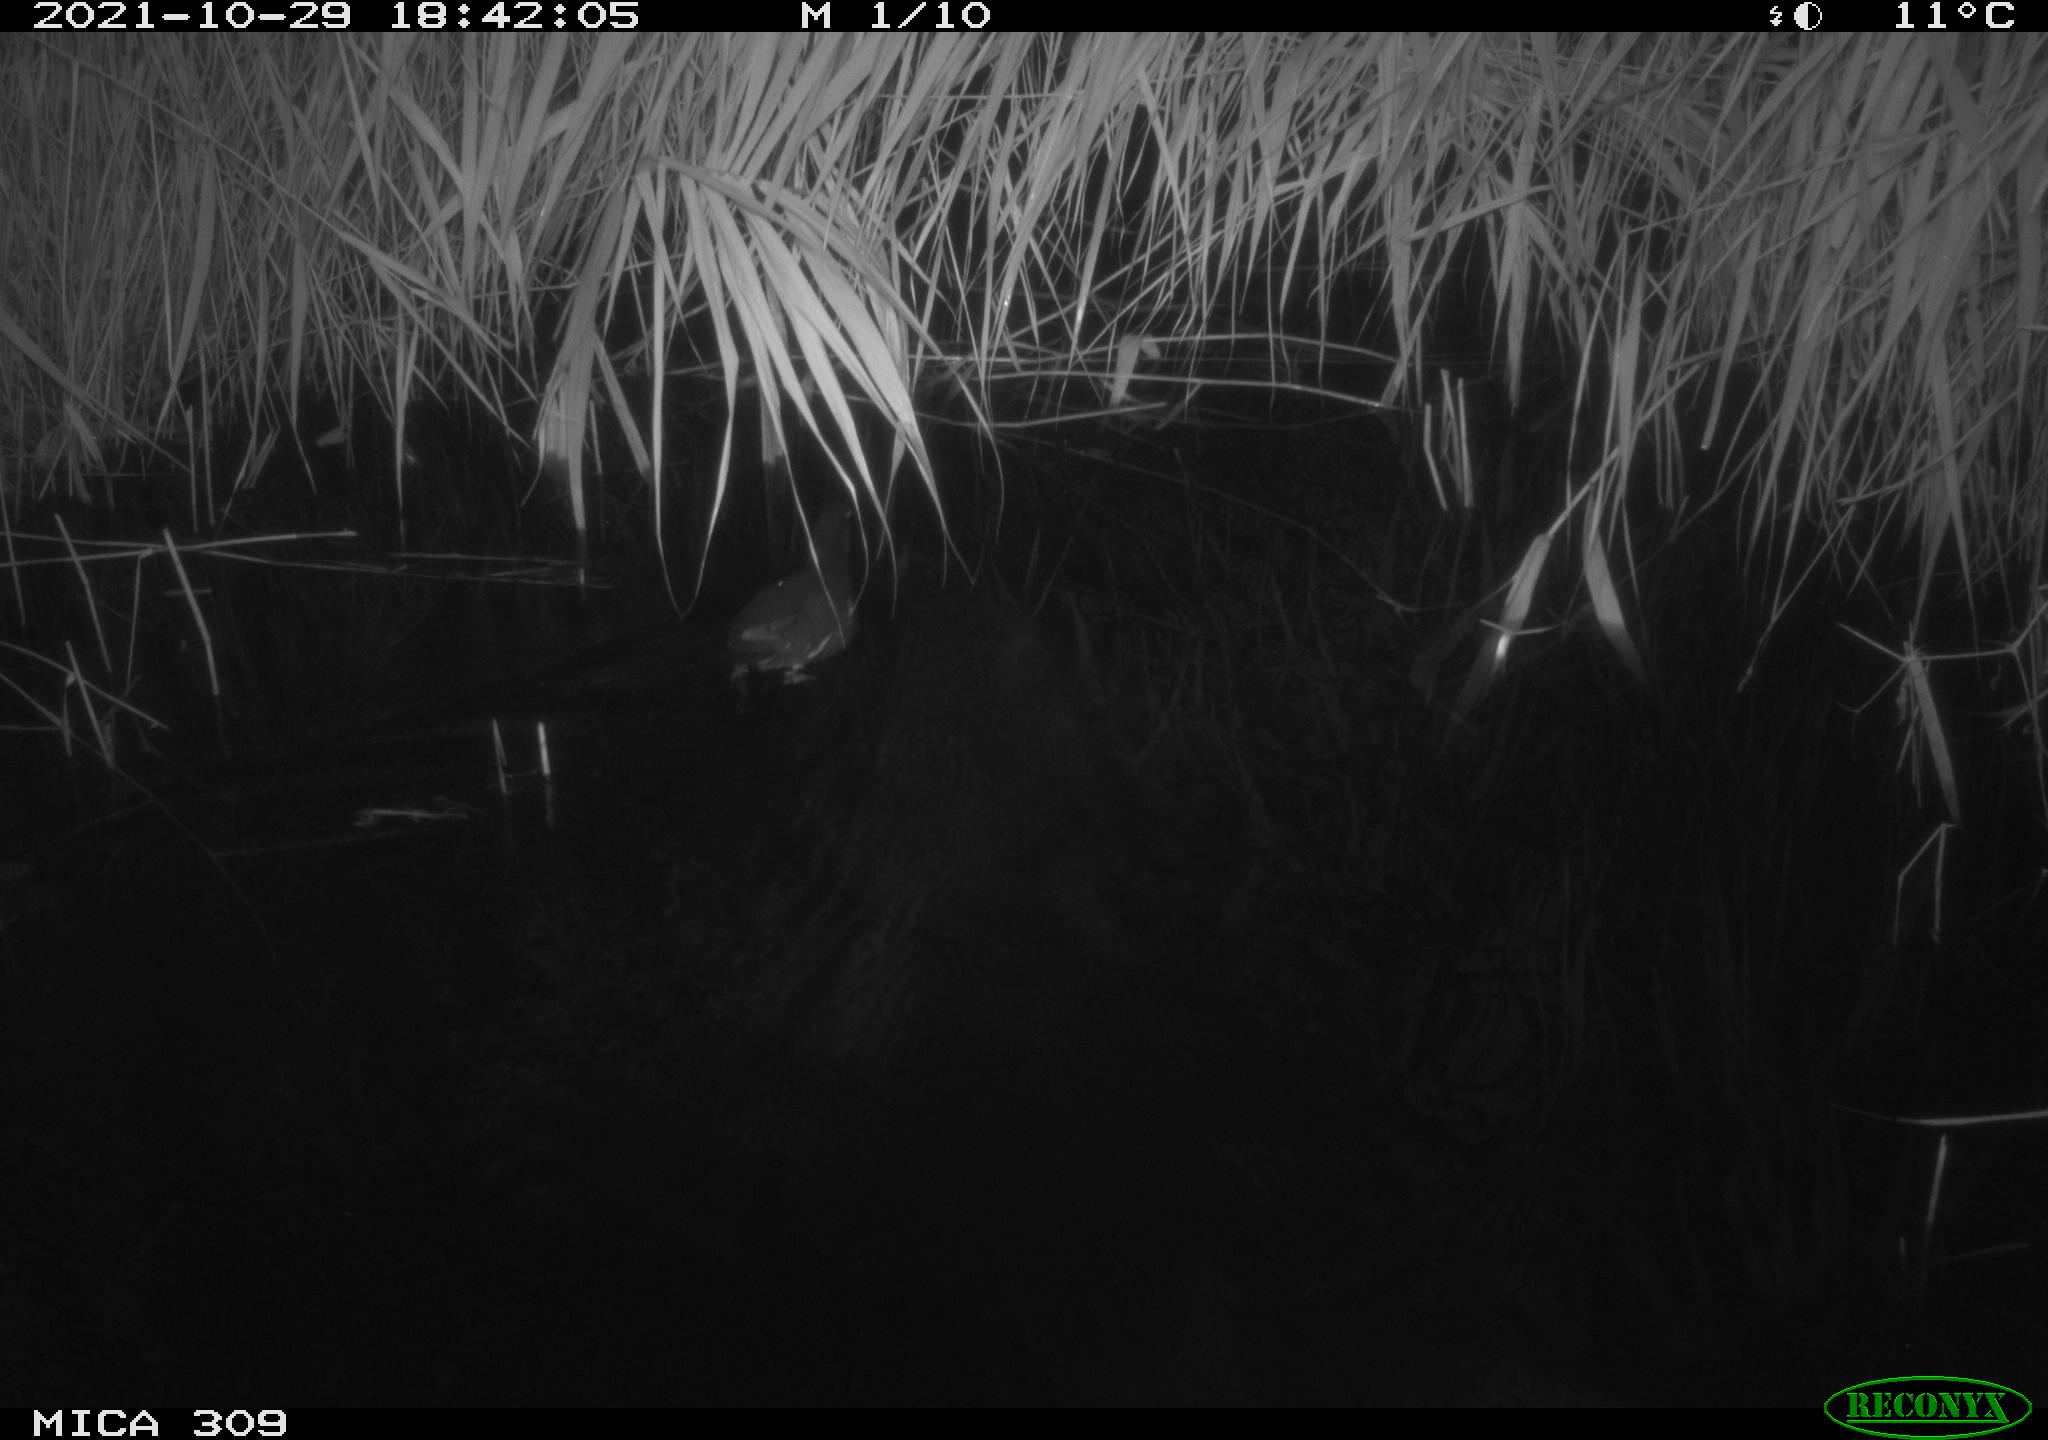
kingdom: Animalia
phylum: Chordata
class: Aves
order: Gruiformes
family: Rallidae
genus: Gallinula
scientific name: Gallinula chloropus
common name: Common moorhen
